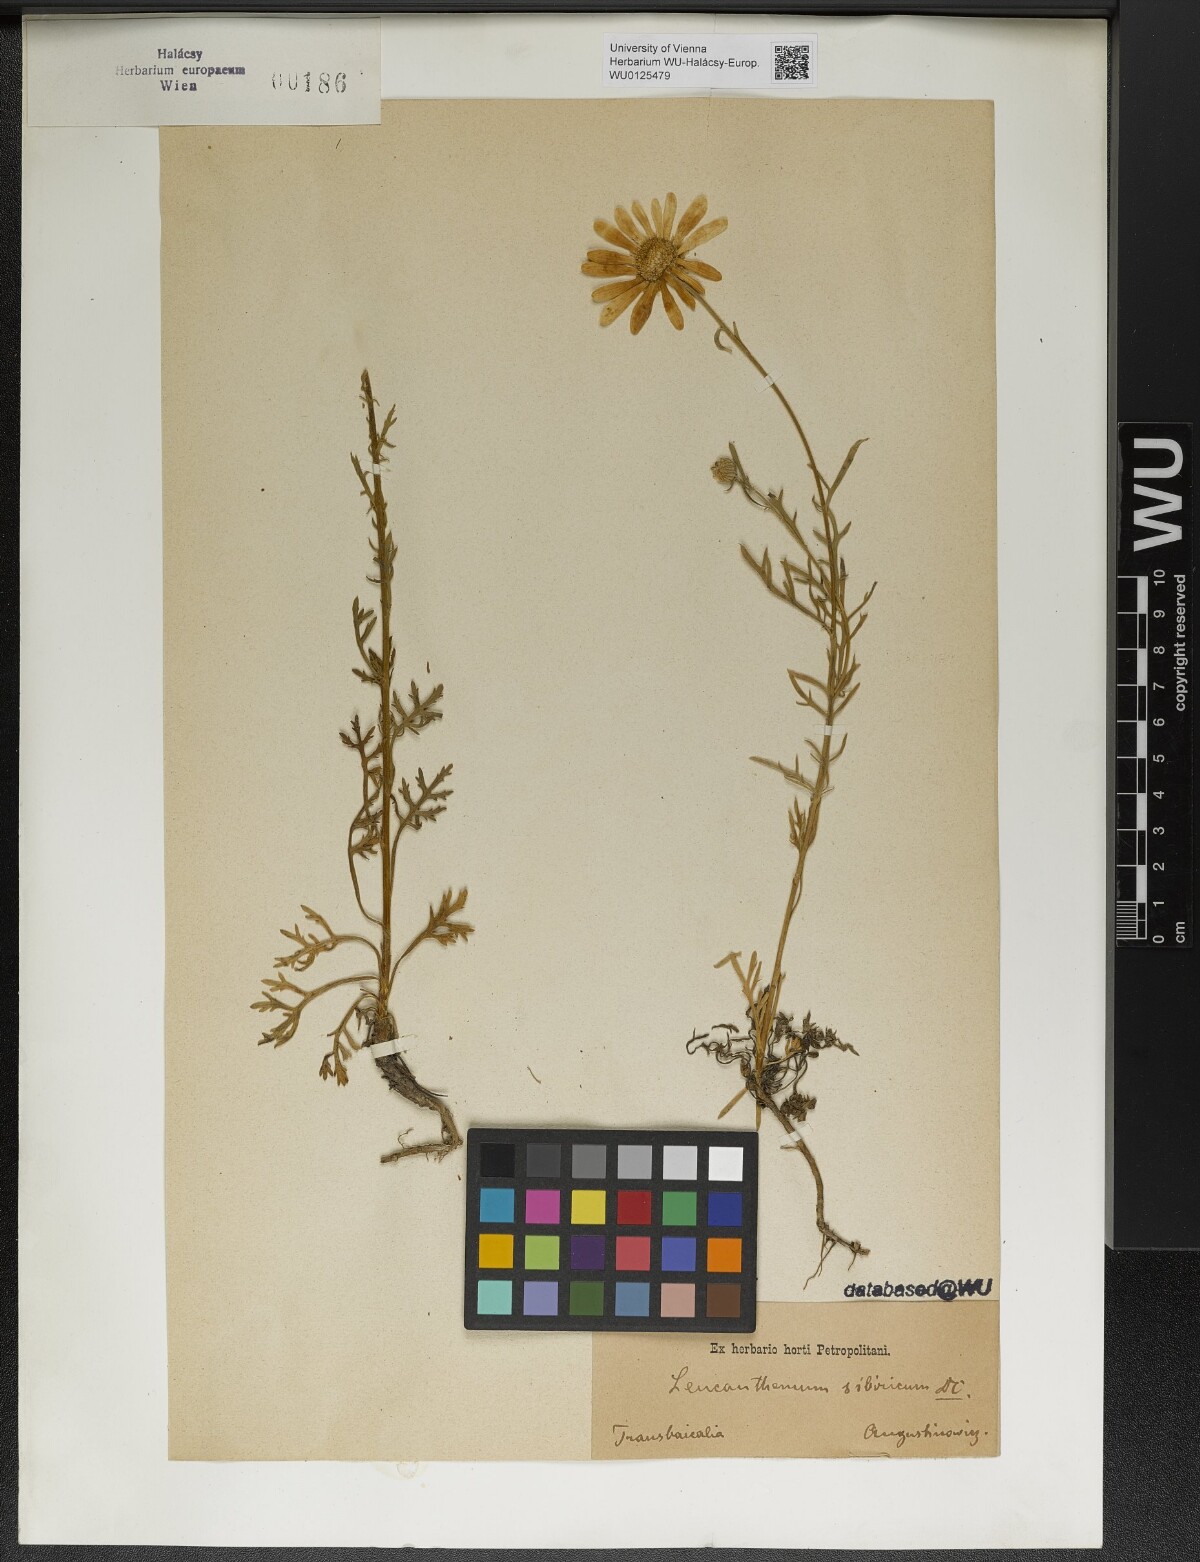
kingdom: Plantae
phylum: Tracheophyta
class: Magnoliopsida
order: Asterales
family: Asteraceae
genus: Arctanthemum
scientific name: Arctanthemum arcticum
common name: Arctic daisy
